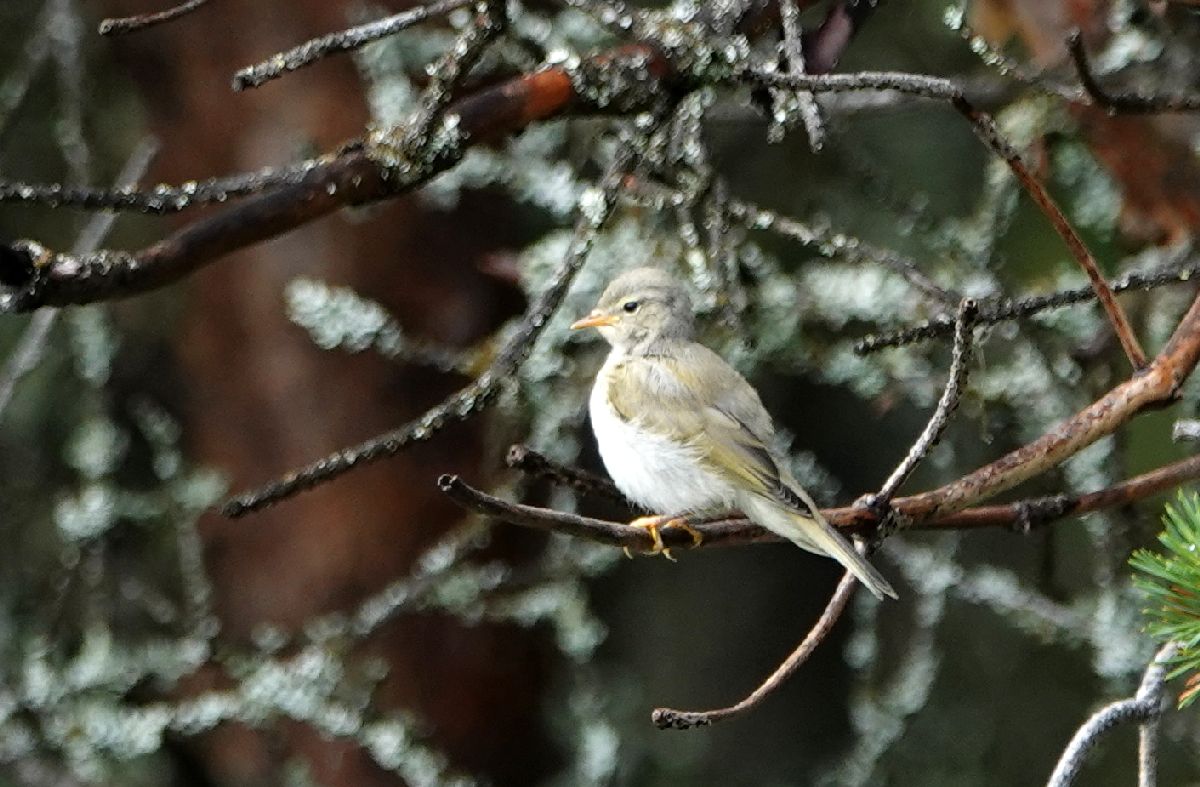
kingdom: Animalia
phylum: Chordata
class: Aves
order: Passeriformes
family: Phylloscopidae
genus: Phylloscopus
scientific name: Phylloscopus trochilus
